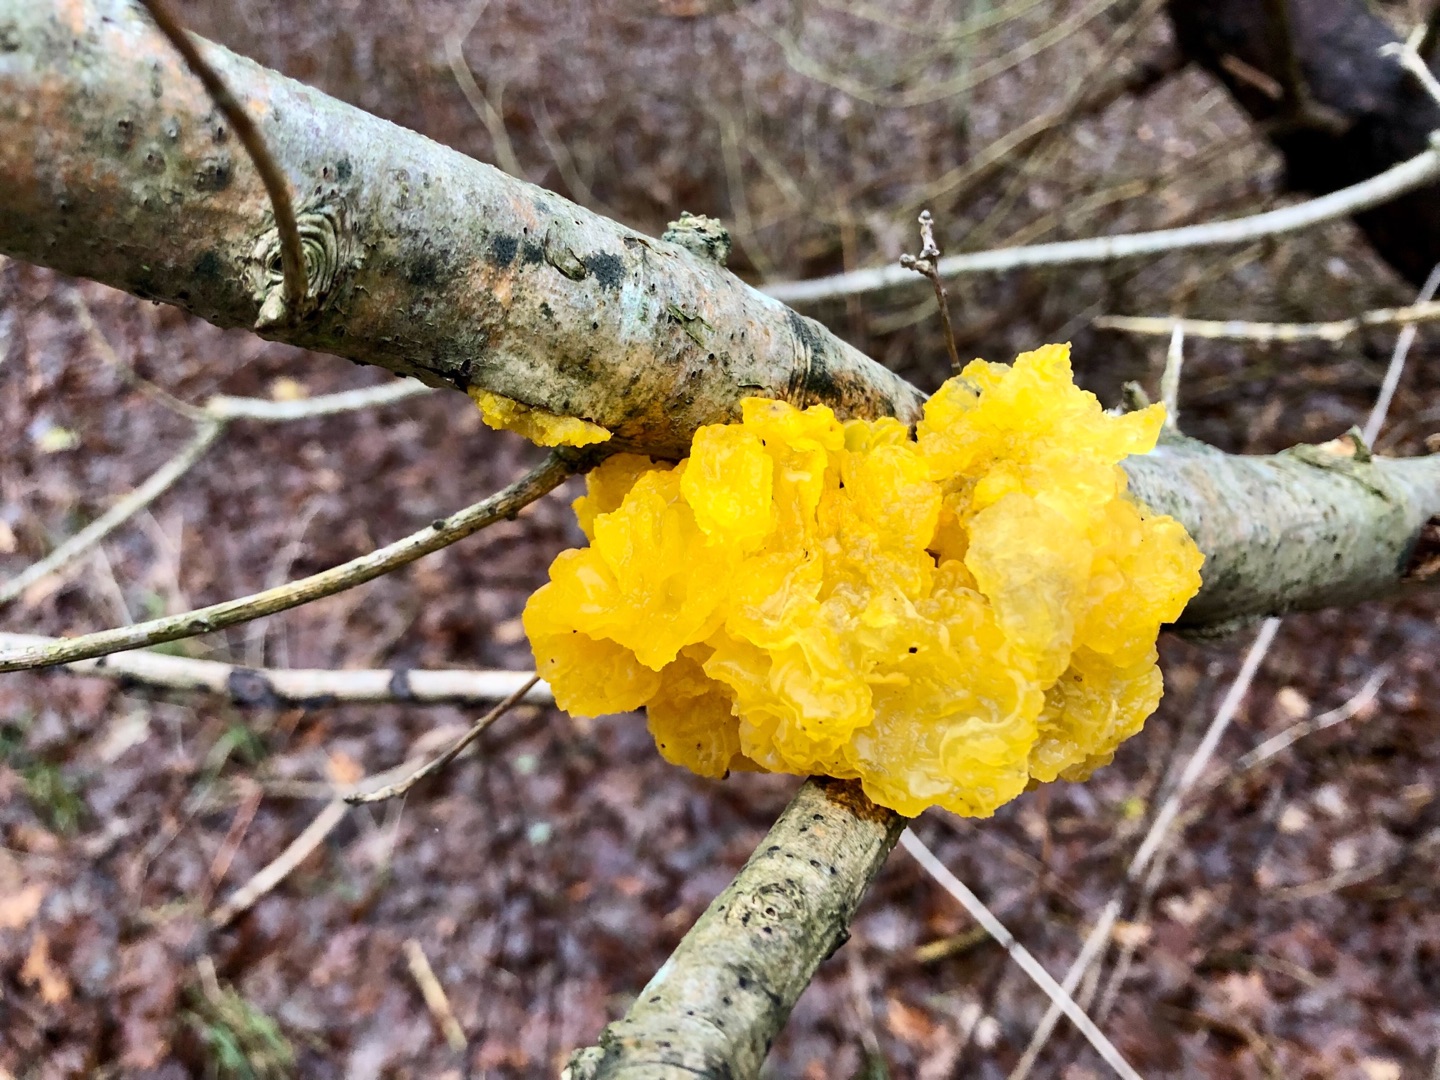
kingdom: Fungi
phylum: Basidiomycota
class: Tremellomycetes
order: Tremellales
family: Tremellaceae
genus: Tremella
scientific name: Tremella mesenterica
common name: Gul bævresvamp
